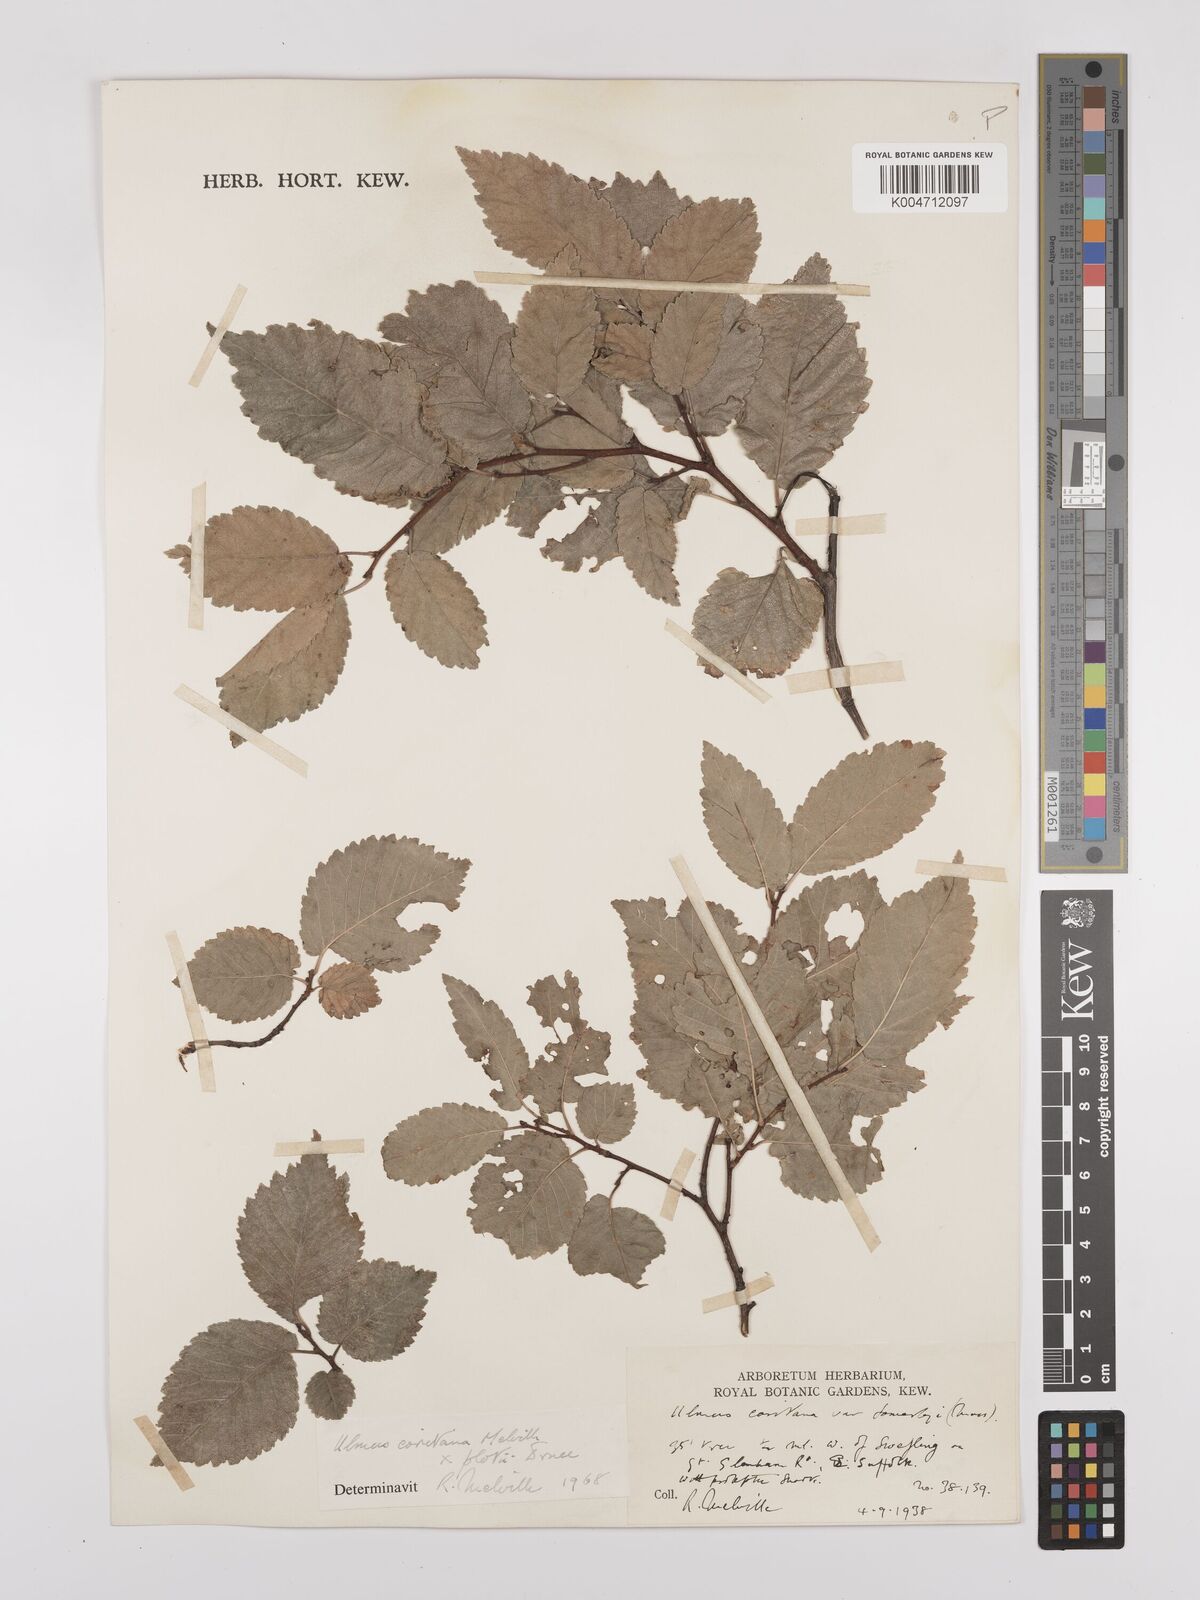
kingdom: Plantae
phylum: Tracheophyta
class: Magnoliopsida
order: Rosales
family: Ulmaceae
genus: Ulmus
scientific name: Ulmus minor
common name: Small-leaved elm
